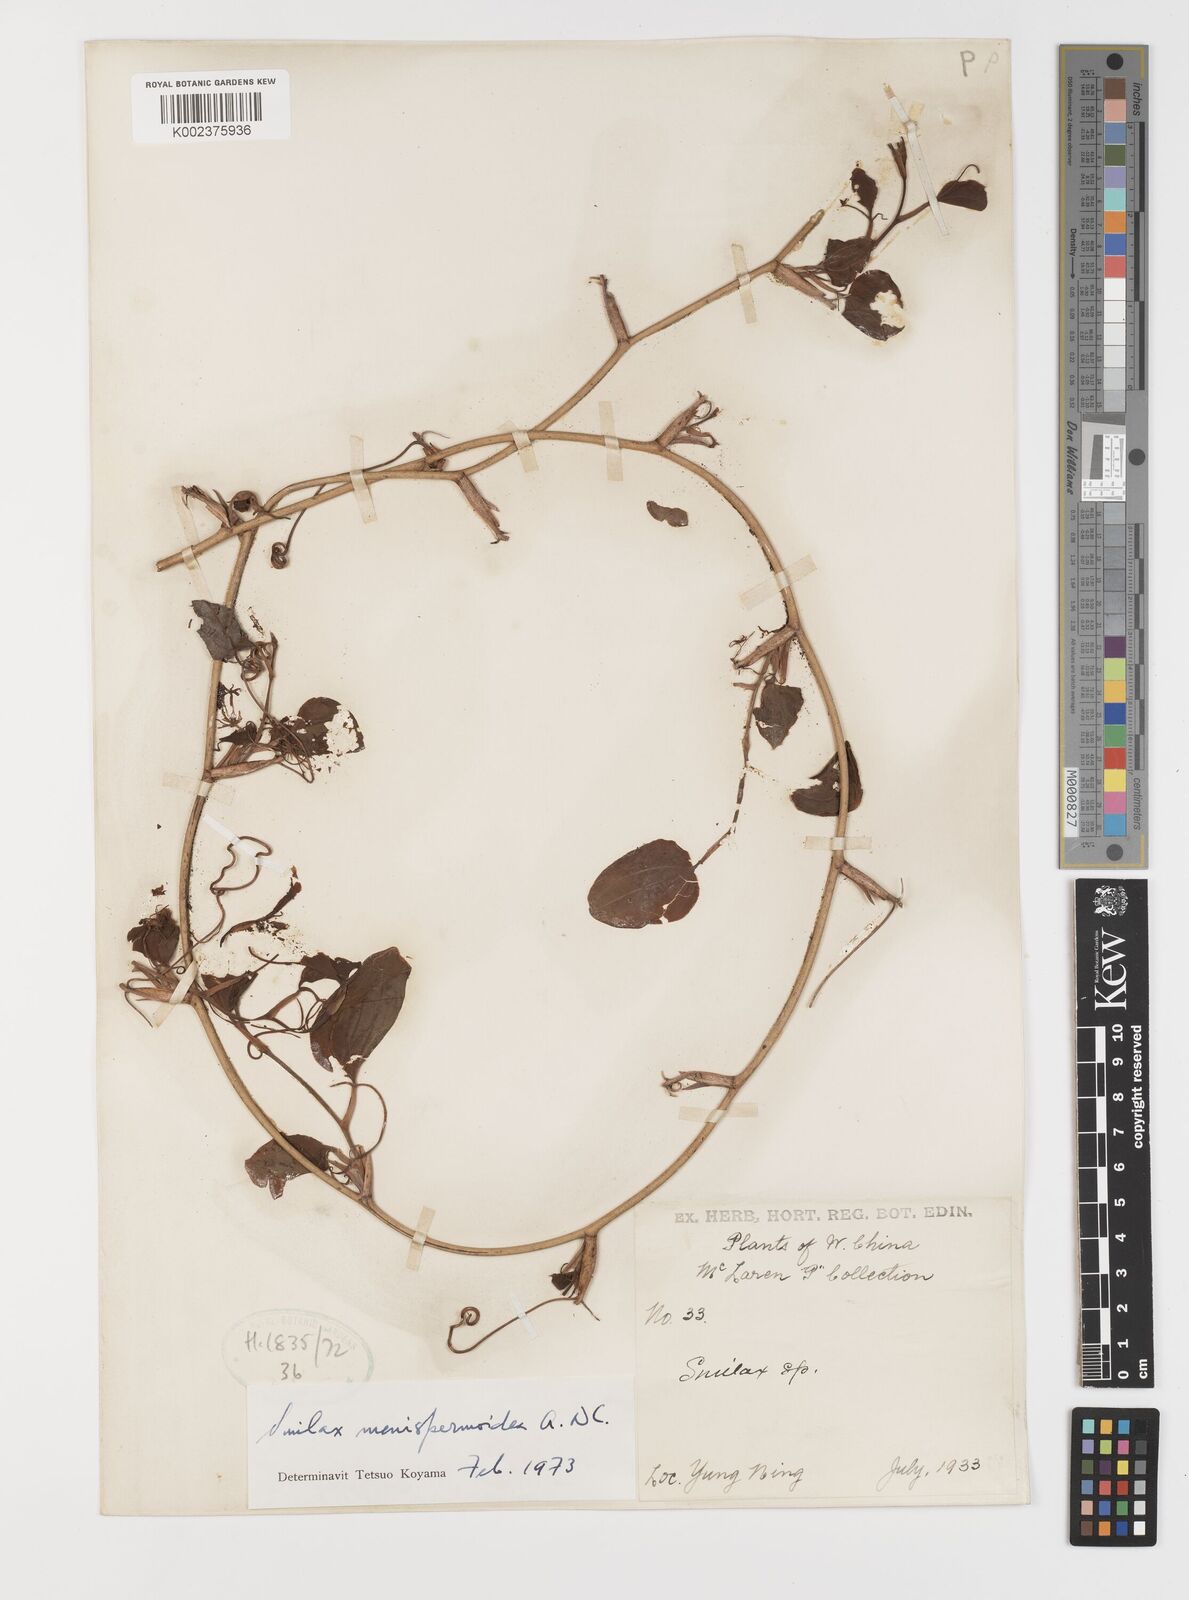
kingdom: Plantae
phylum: Tracheophyta
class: Liliopsida
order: Liliales
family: Smilacaceae
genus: Smilax
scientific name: Smilax menispermoidea
